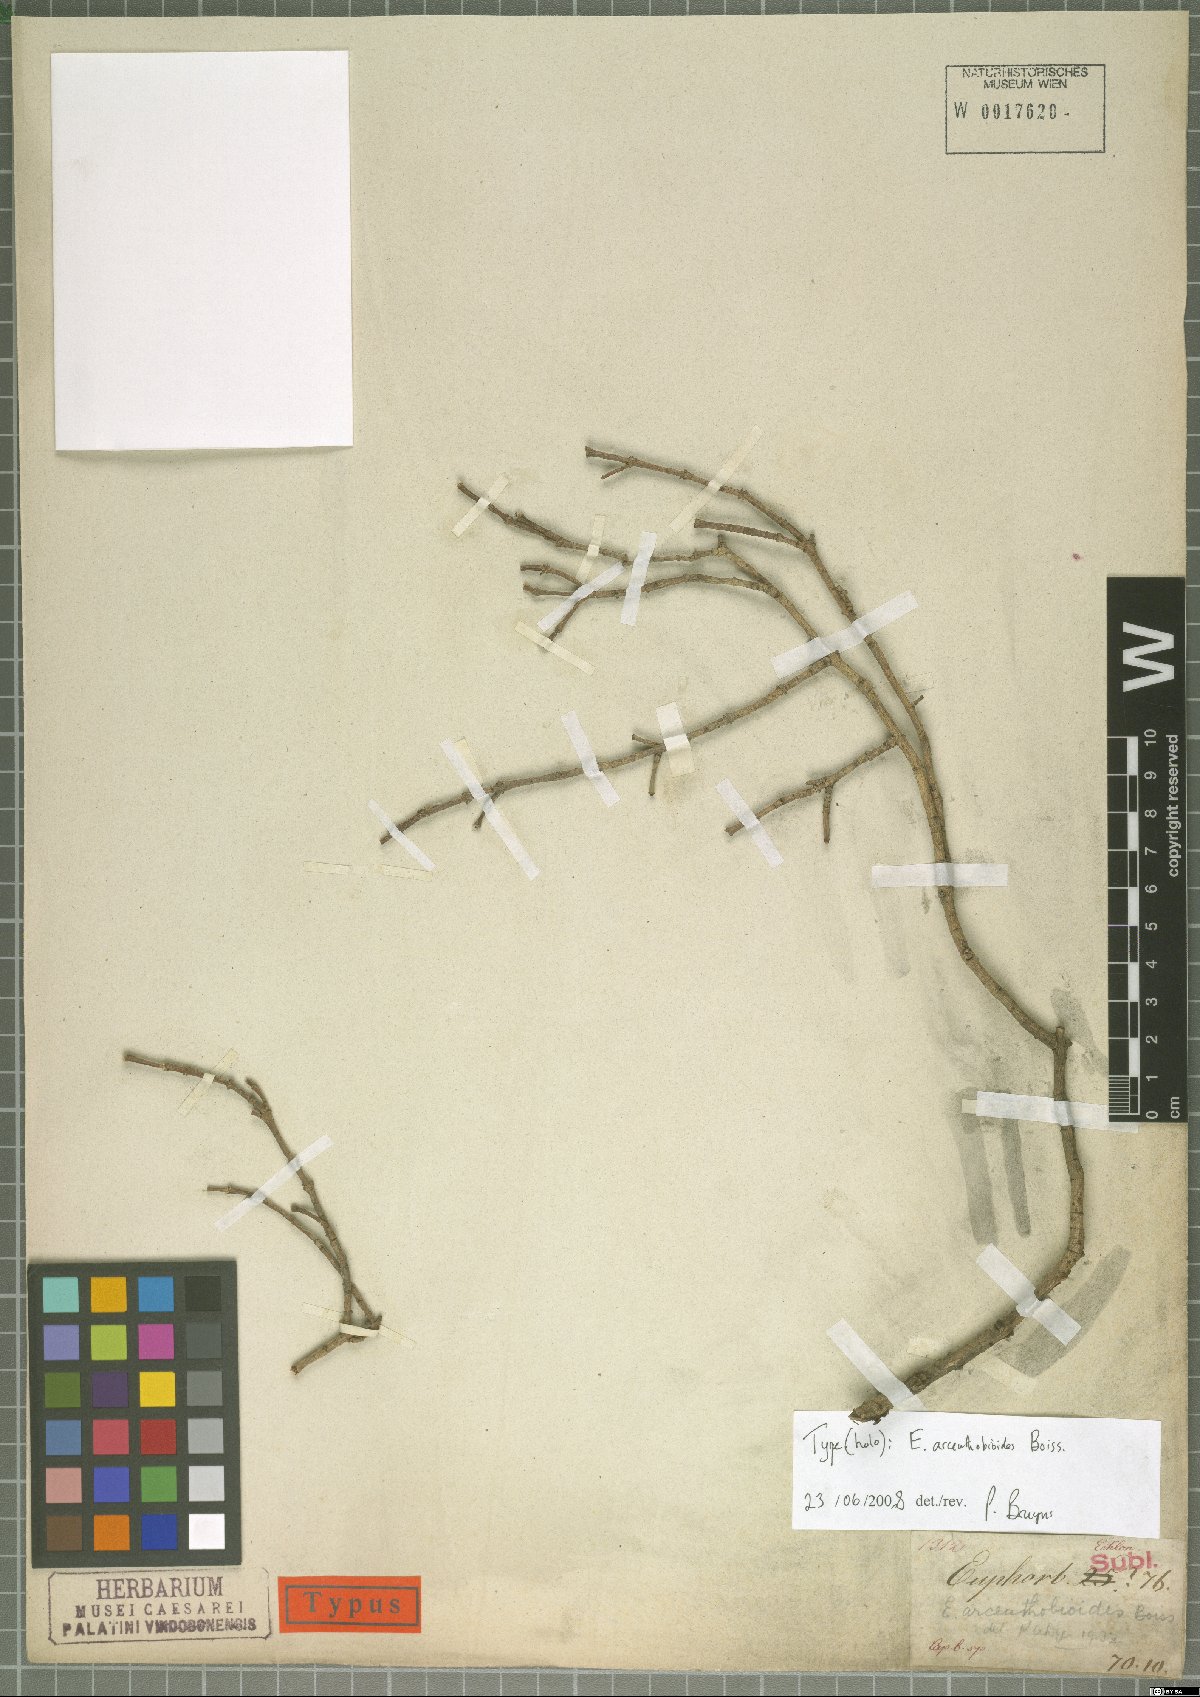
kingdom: Plantae
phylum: Tracheophyta
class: Magnoliopsida
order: Malpighiales
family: Euphorbiaceae
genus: Euphorbia
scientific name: Euphorbia arceuthobioides
